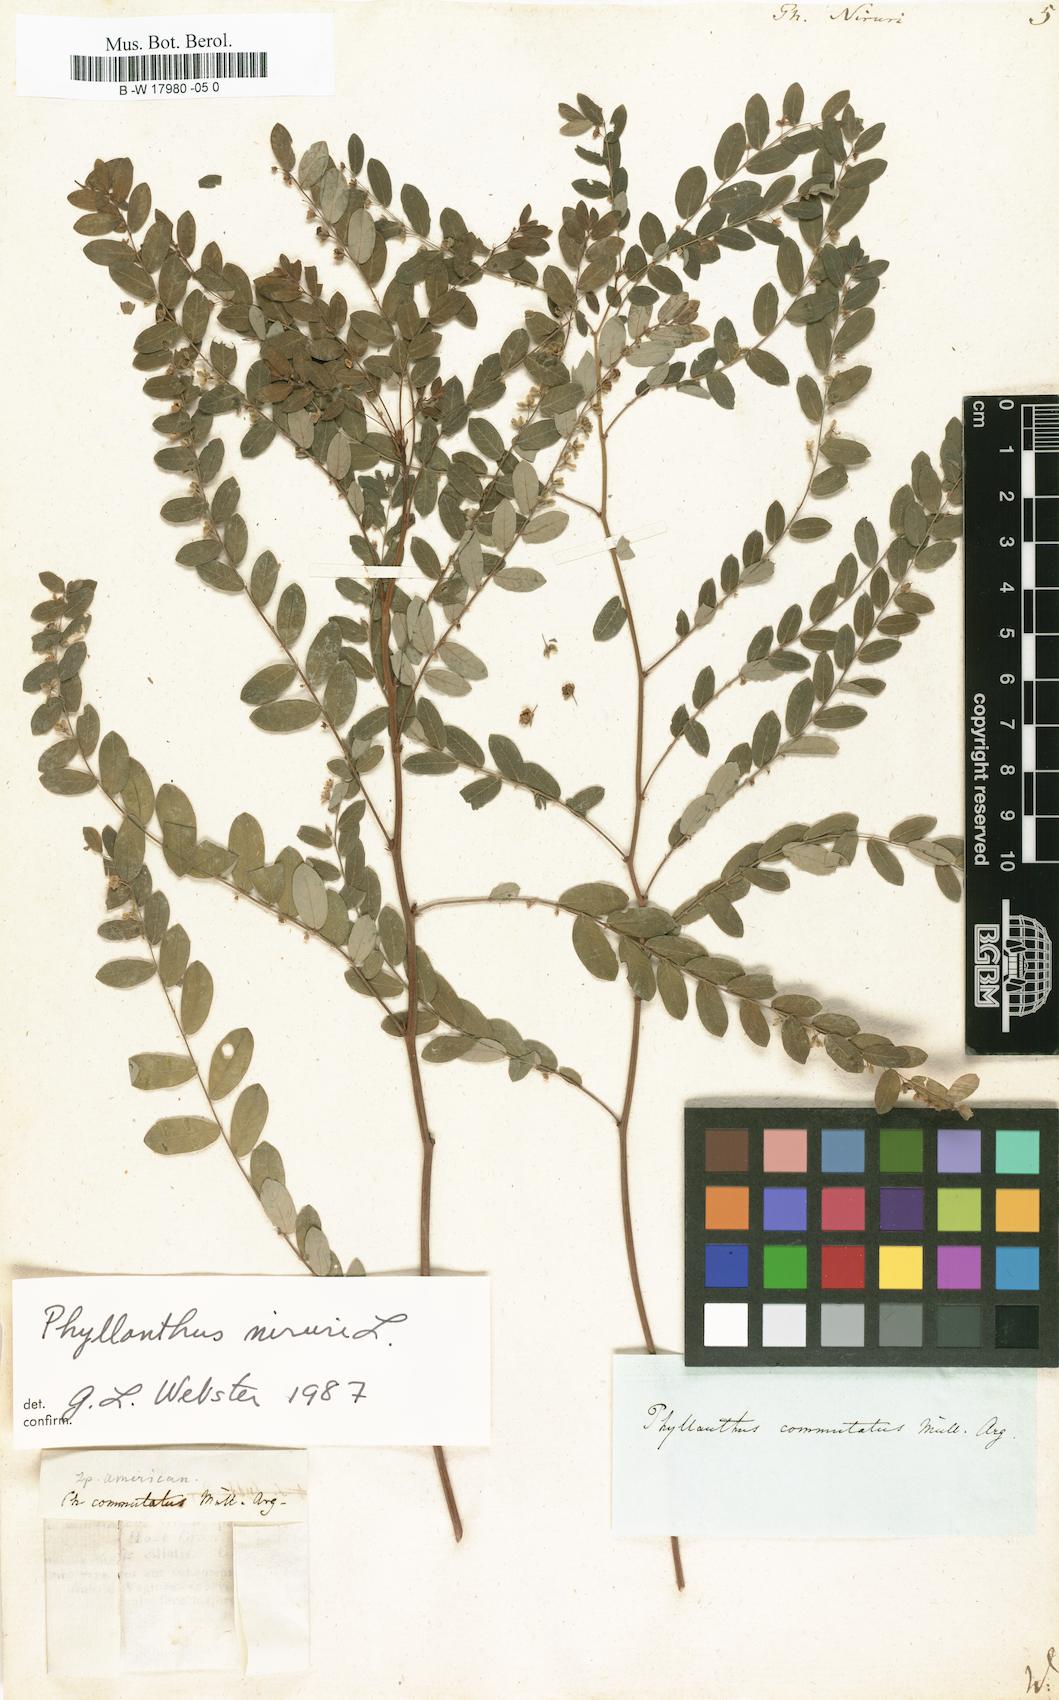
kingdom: Plantae
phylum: Tracheophyta
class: Magnoliopsida
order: Malpighiales
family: Phyllanthaceae
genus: Phyllanthus
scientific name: Phyllanthus niruri
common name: Niruri
